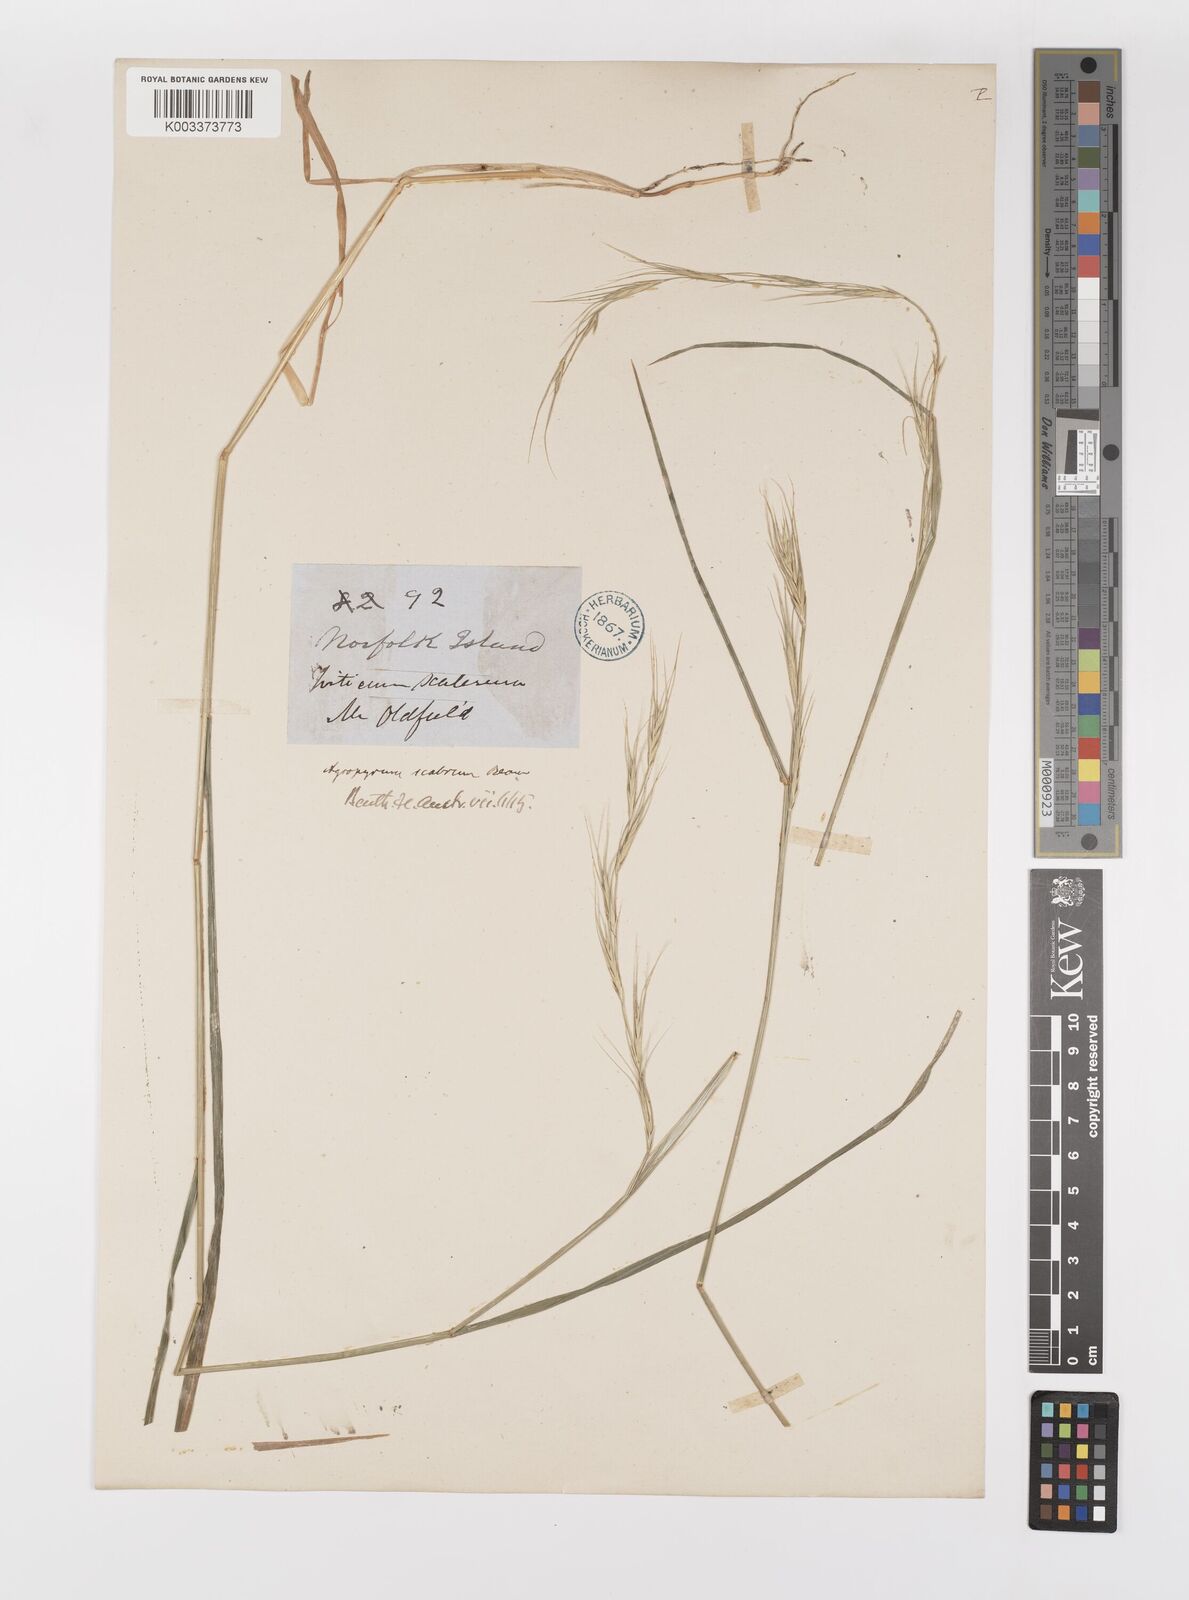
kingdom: Plantae
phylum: Tracheophyta
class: Liliopsida
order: Poales
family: Poaceae
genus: Anthosachne
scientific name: Anthosachne scabra
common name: Common wheatgrass
